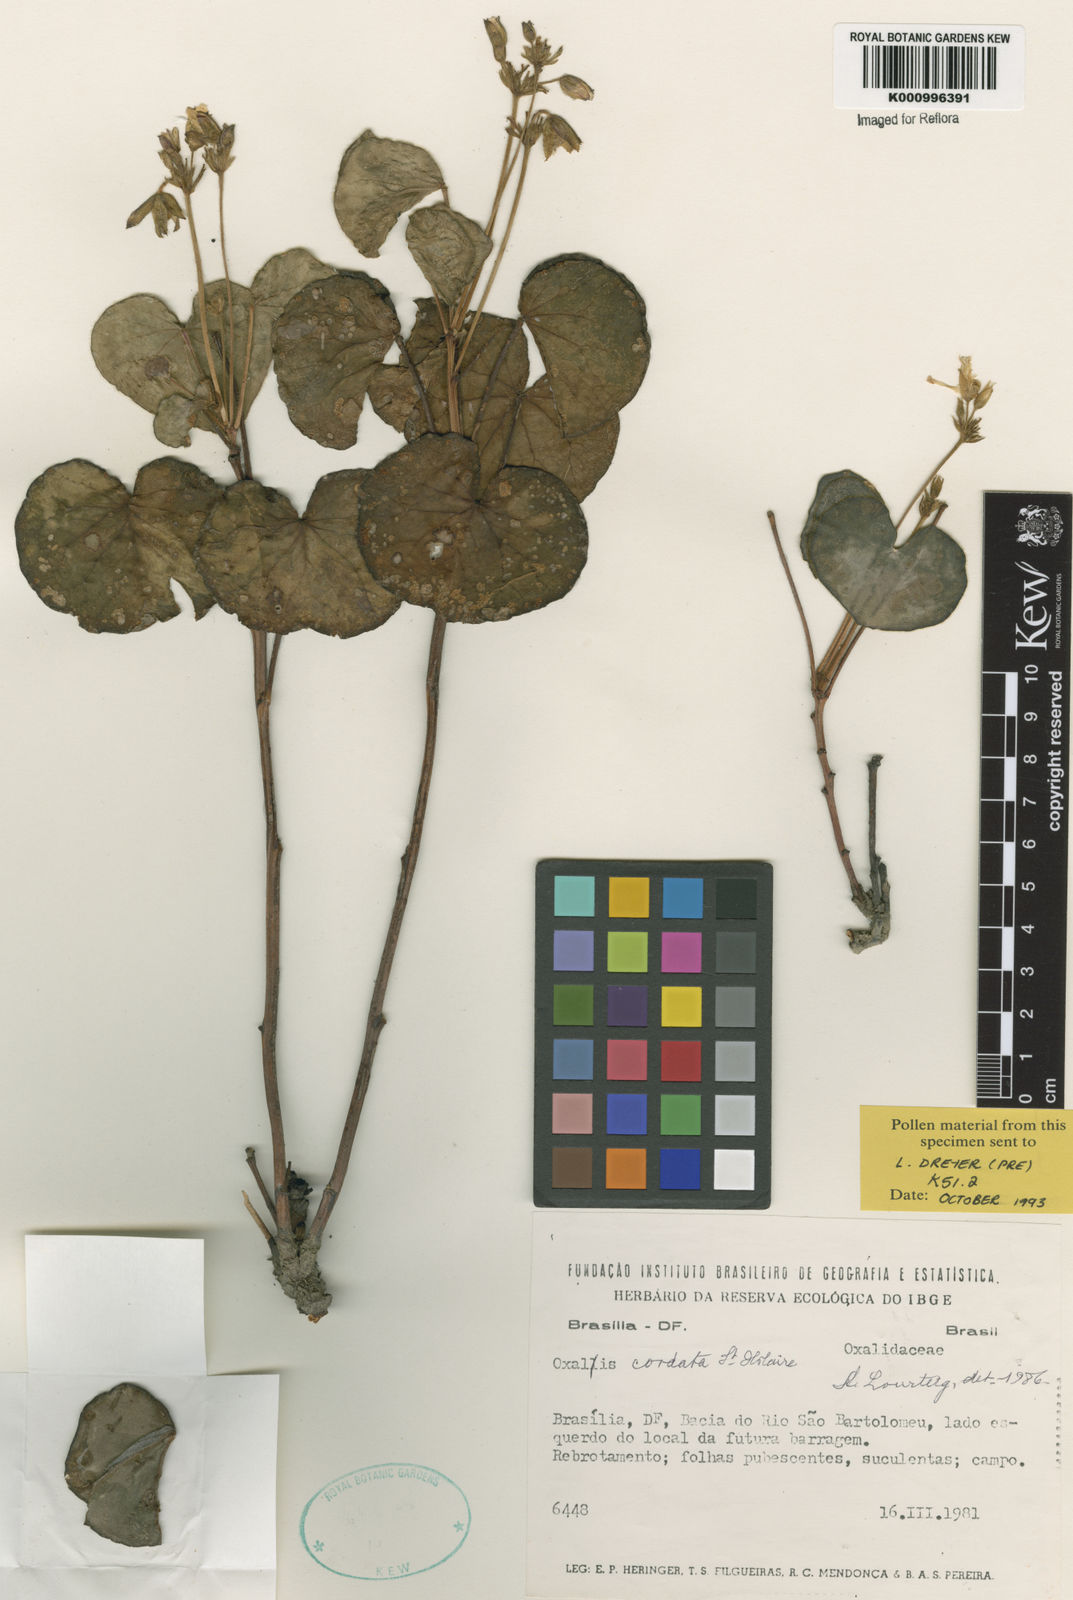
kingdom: Plantae
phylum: Tracheophyta
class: Magnoliopsida
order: Oxalidales
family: Oxalidaceae
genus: Oxalis
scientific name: Oxalis cordata
